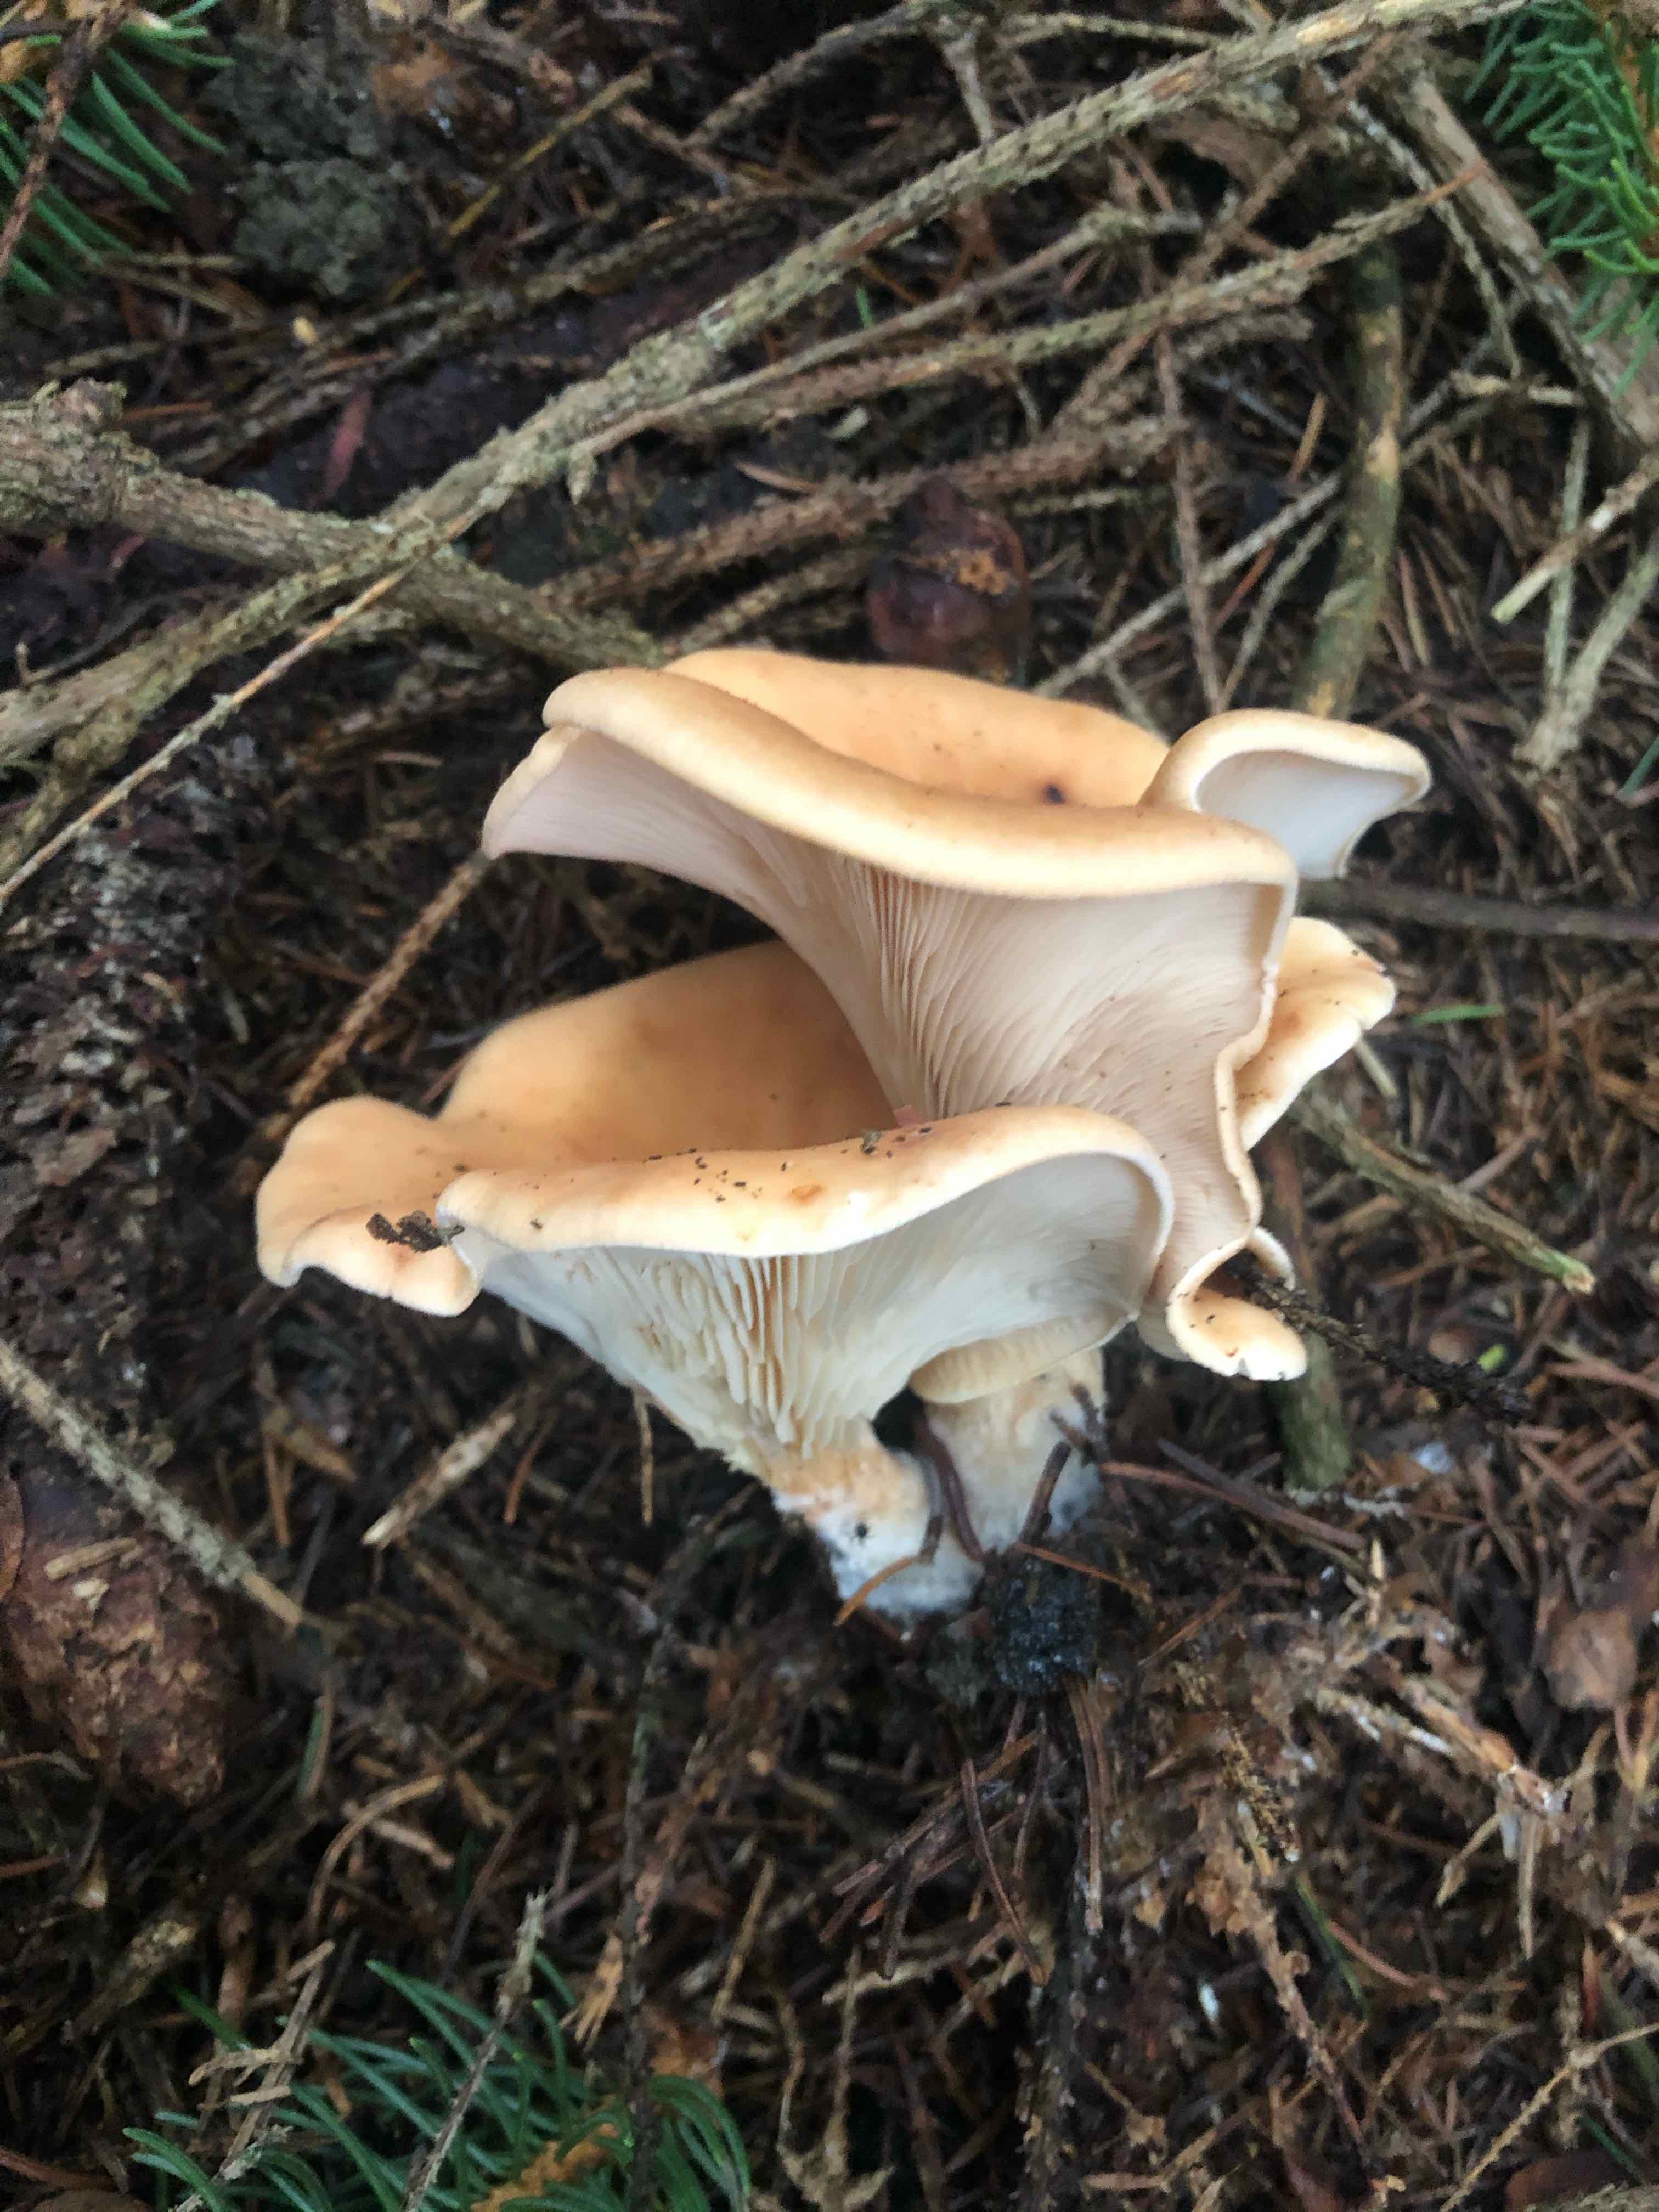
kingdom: Fungi
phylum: Basidiomycota
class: Agaricomycetes
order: Agaricales
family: Tricholomataceae
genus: Paralepista
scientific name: Paralepista flaccida
